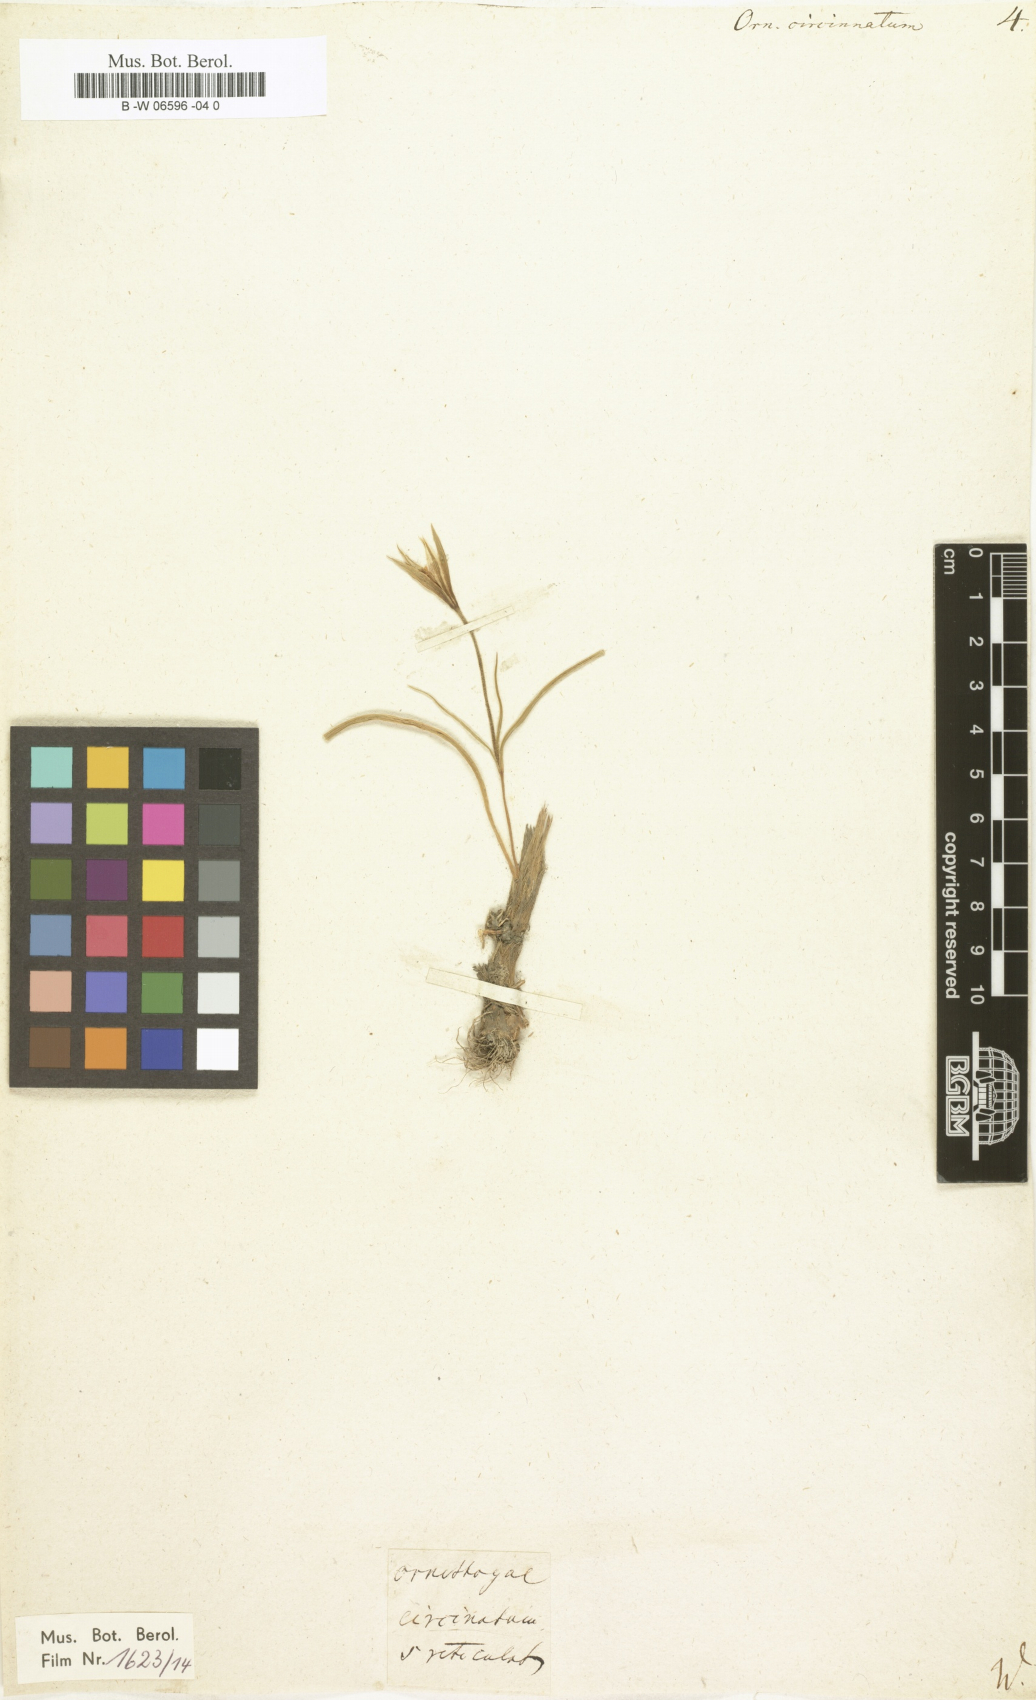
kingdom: Plantae
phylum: Tracheophyta
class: Liliopsida
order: Liliales
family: Liliaceae
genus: Gagea
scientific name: Gagea reticulata
